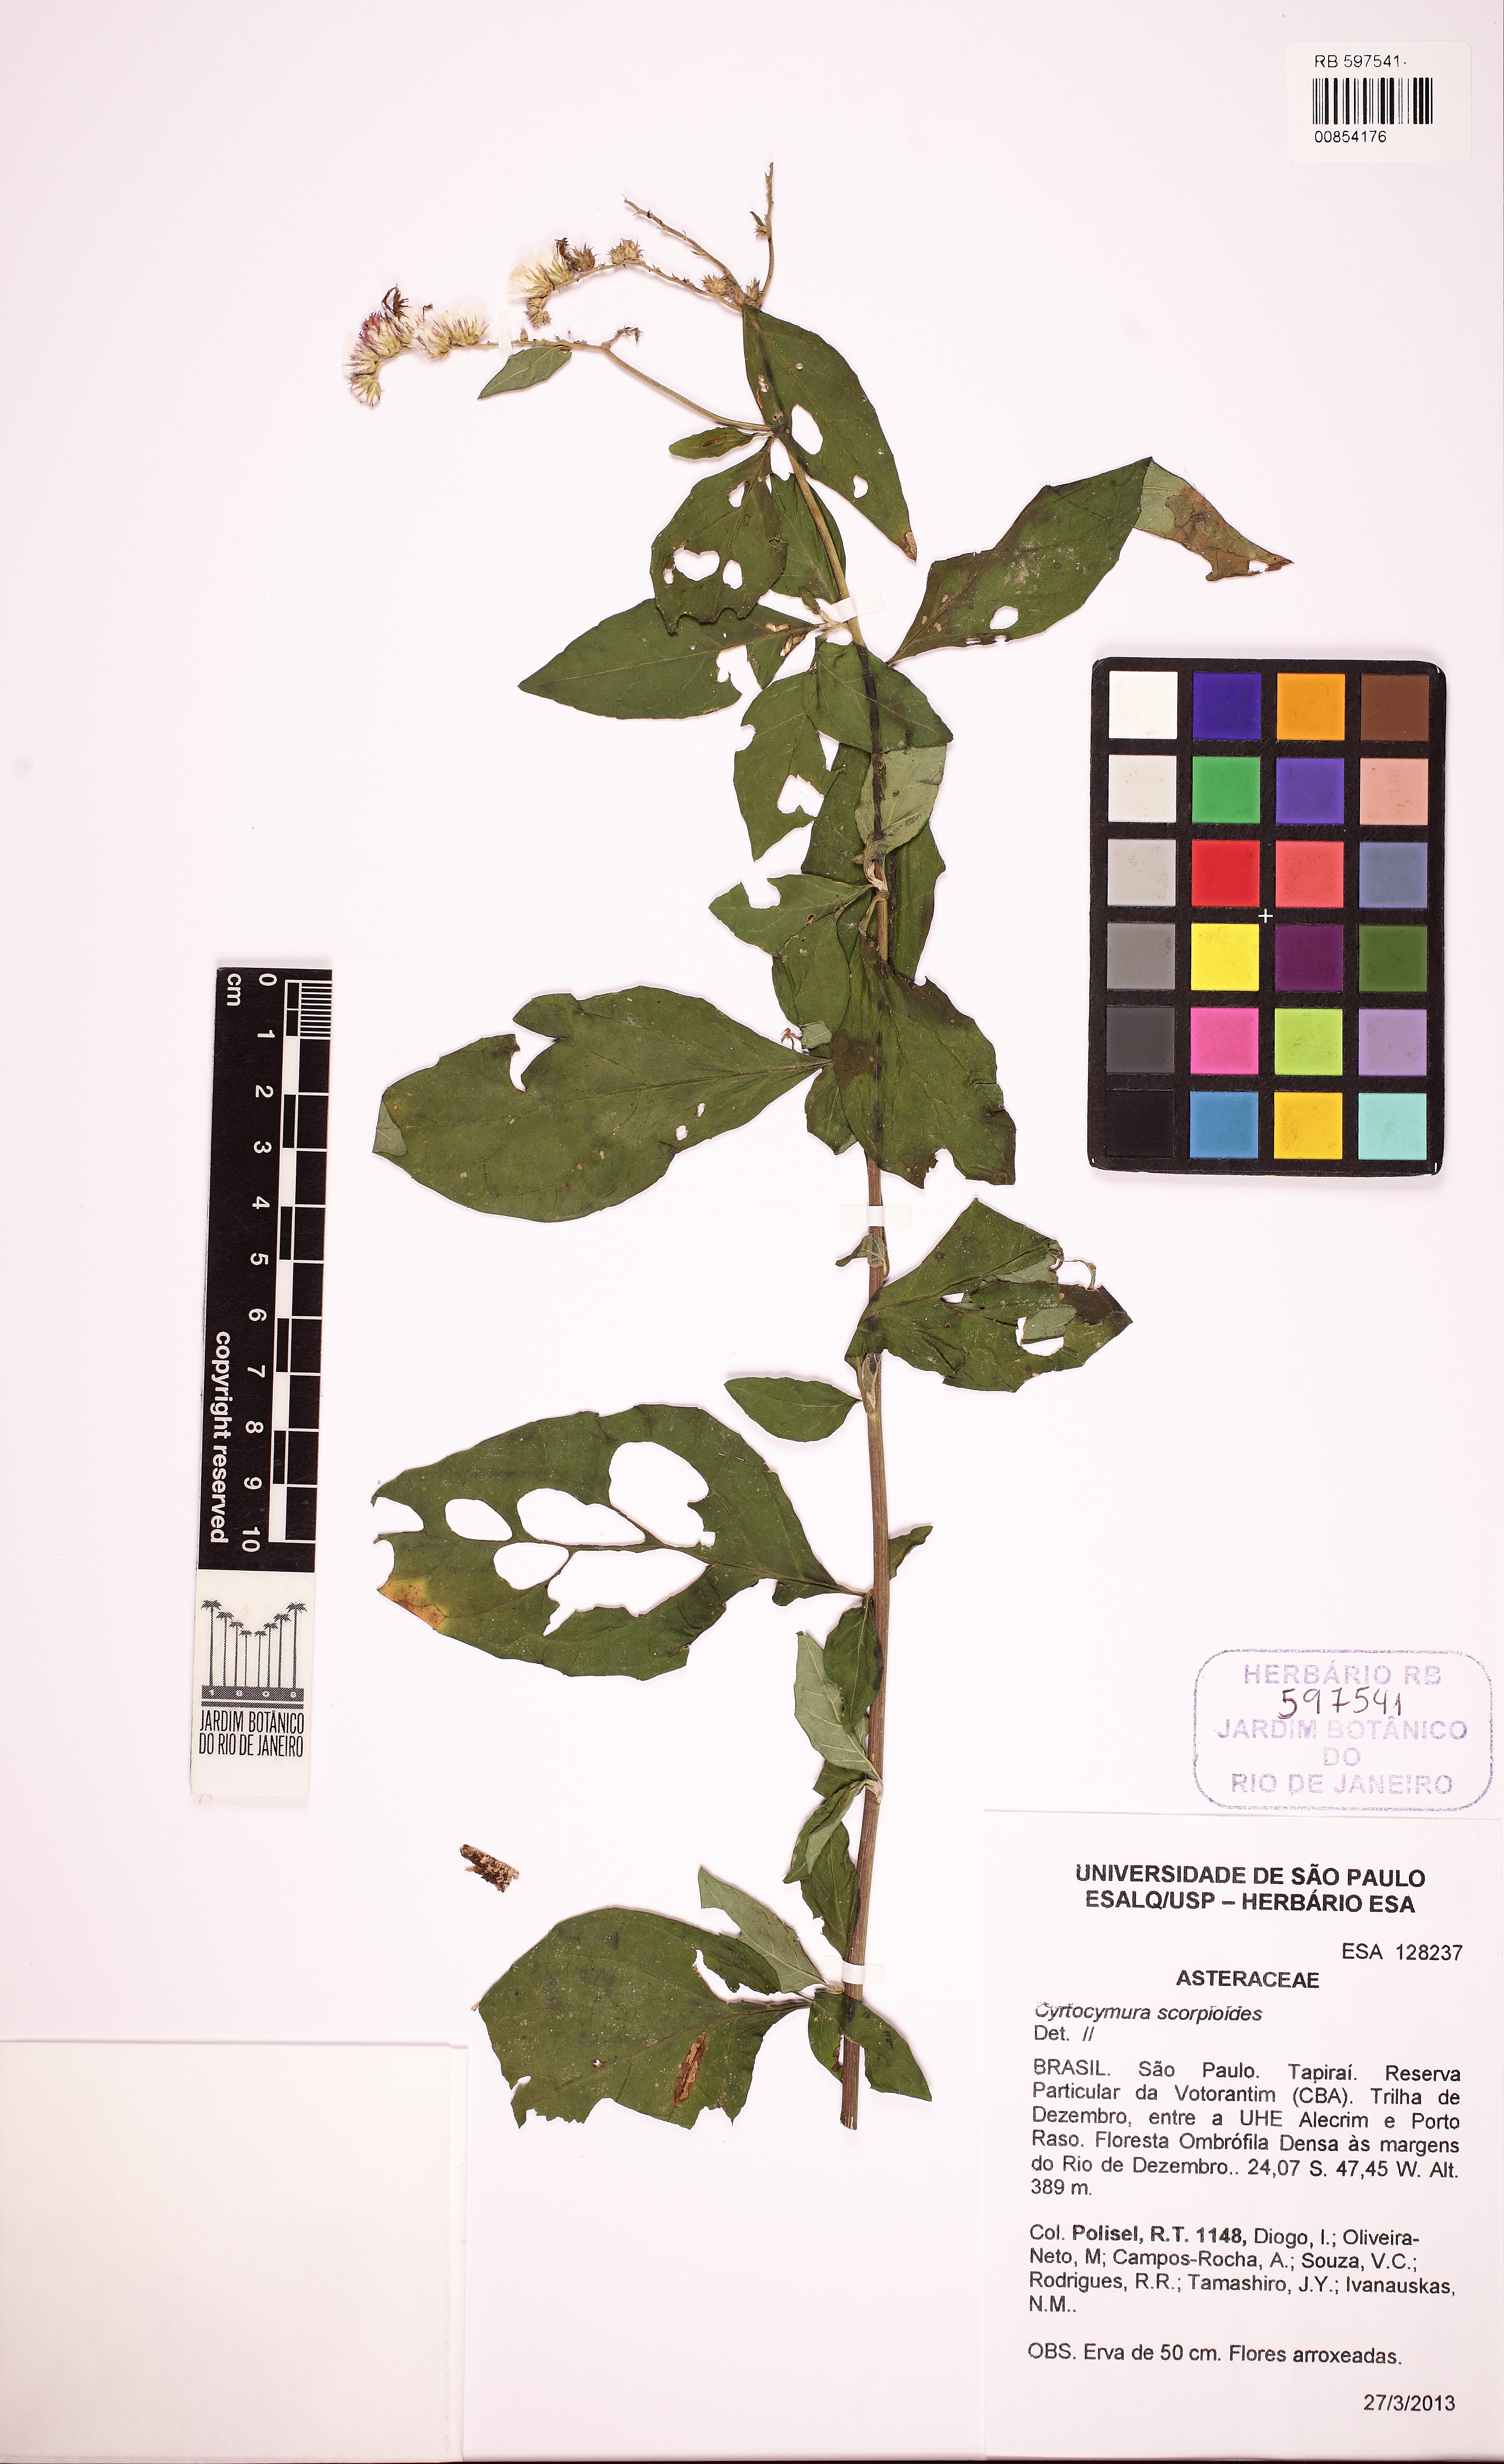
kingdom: Plantae
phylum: Tracheophyta
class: Magnoliopsida
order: Asterales
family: Asteraceae
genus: Cyrtocymura
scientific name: Cyrtocymura scorpioides
